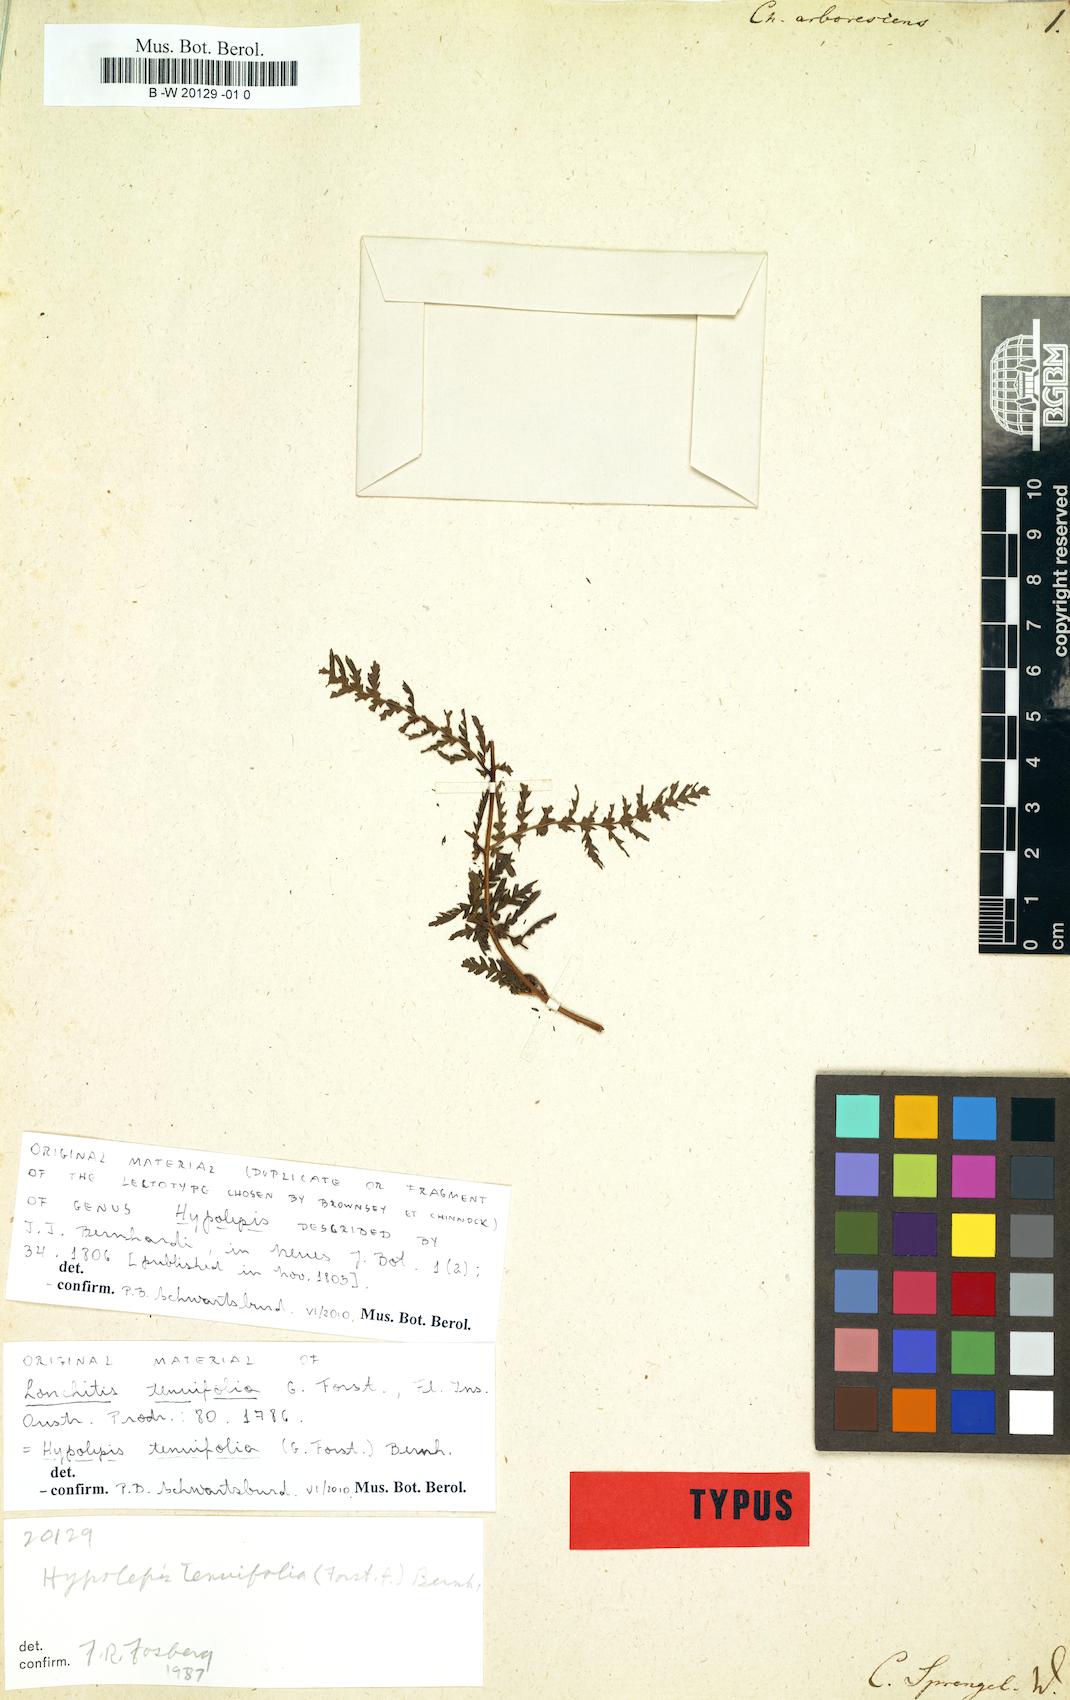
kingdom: Plantae
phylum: Tracheophyta
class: Polypodiopsida
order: Polypodiales
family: Dennstaedtiaceae
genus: Hypolepis
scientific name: Hypolepis tenuifolia
